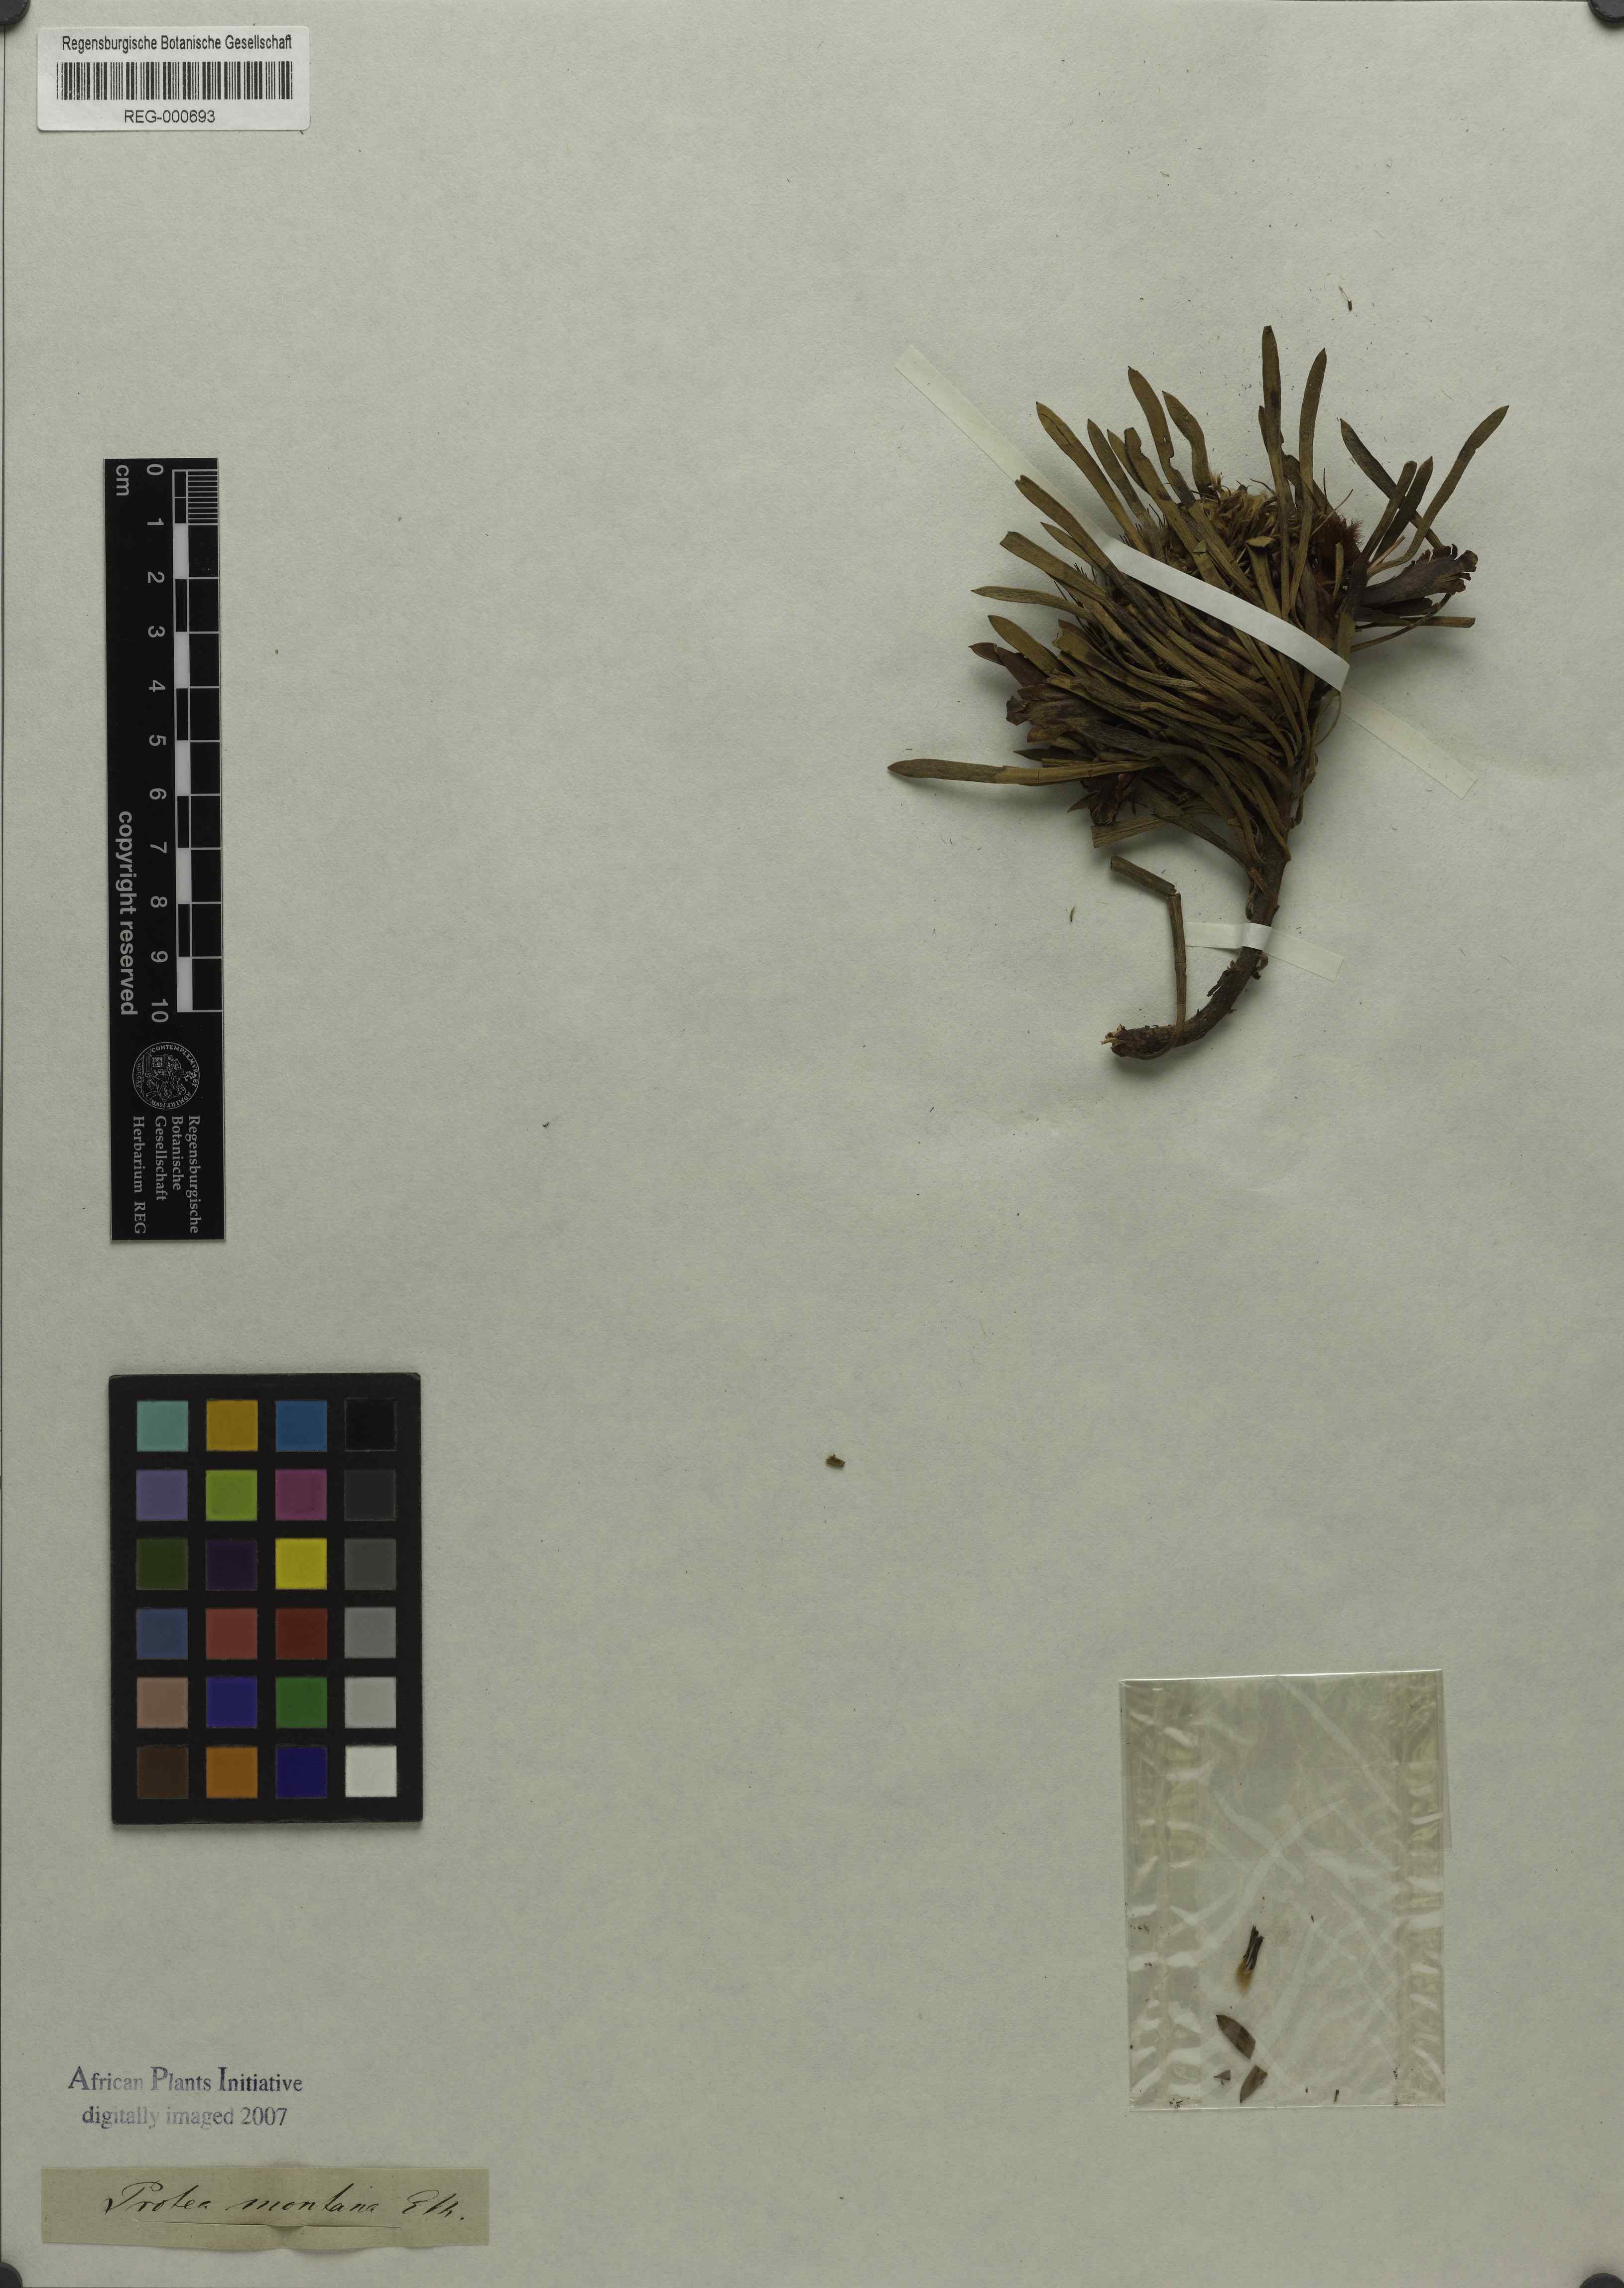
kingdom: Plantae
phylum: Tracheophyta
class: Magnoliopsida
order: Proteales
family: Proteaceae
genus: Protea
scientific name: Protea montana
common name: Swartberg sugarbush
